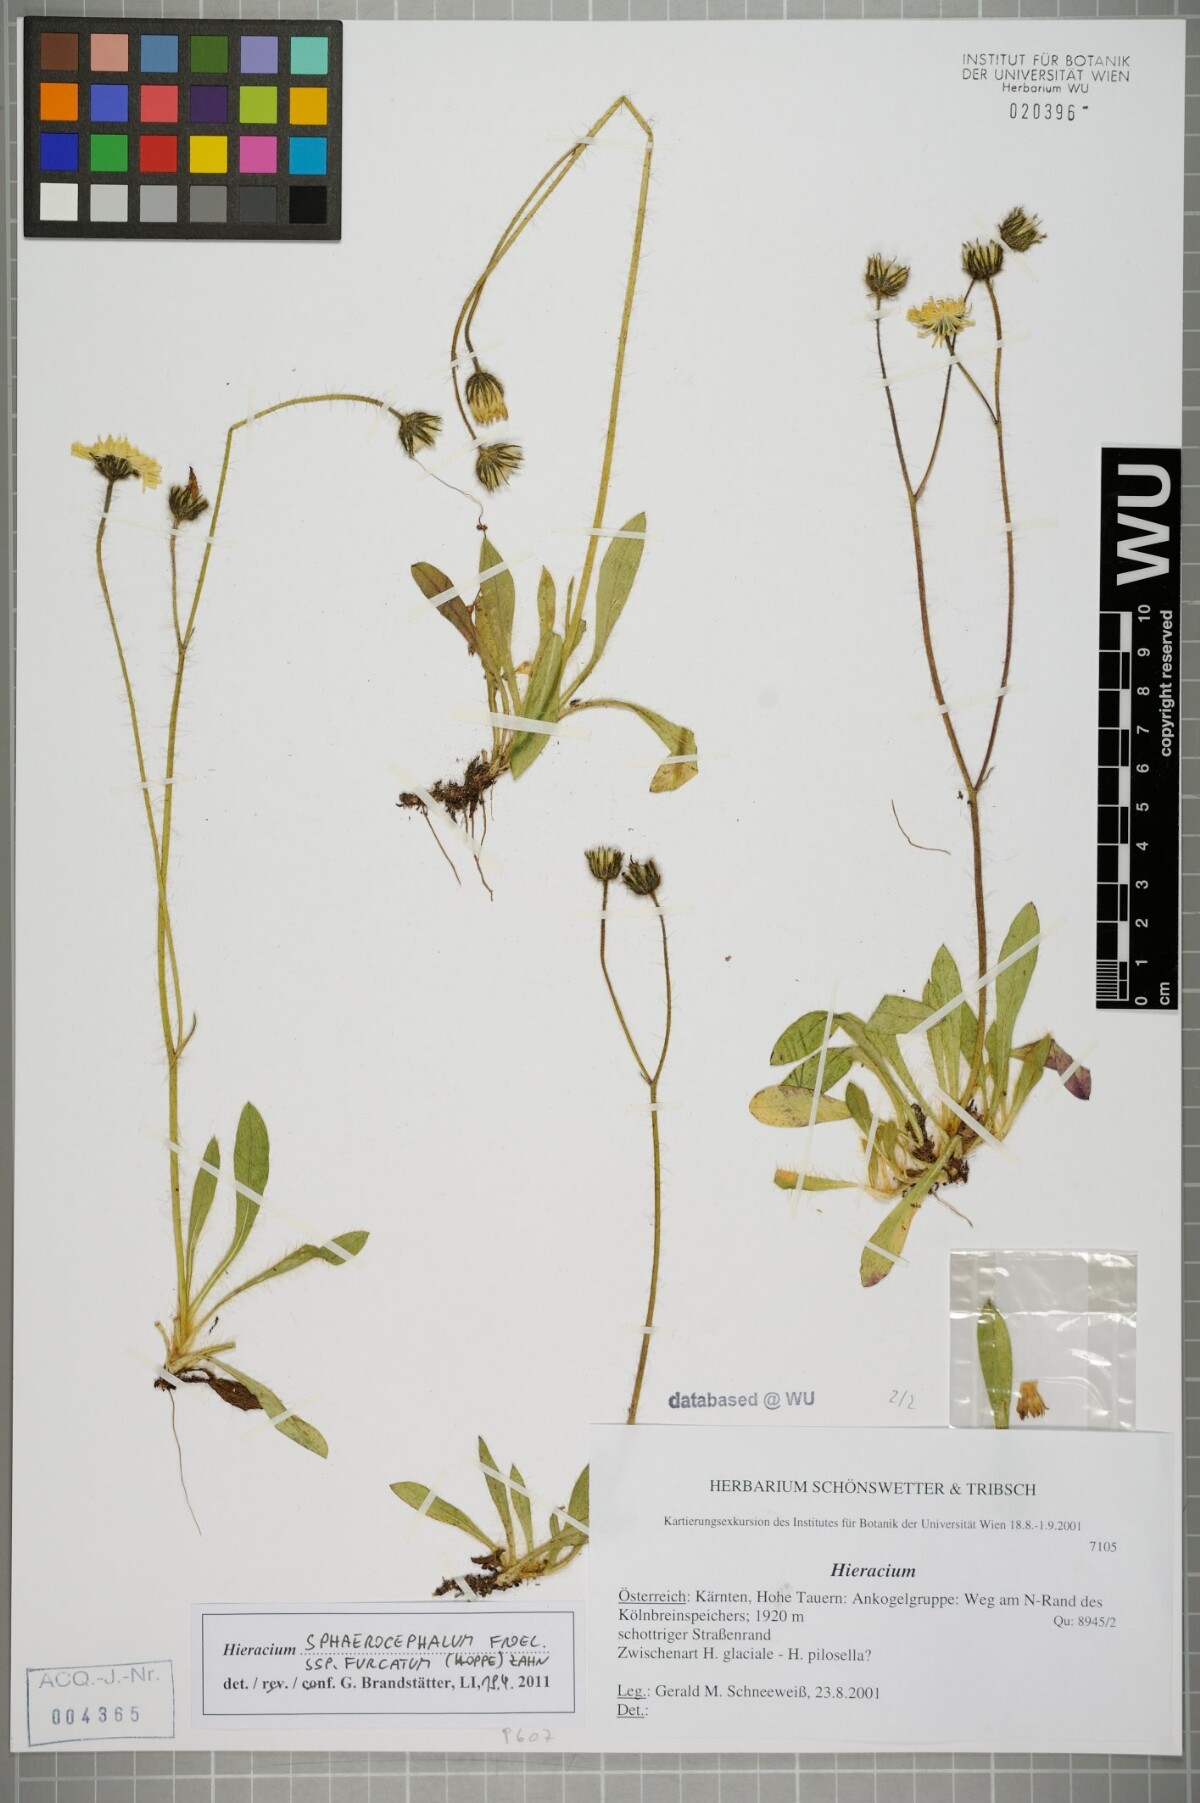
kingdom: Plantae
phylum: Tracheophyta
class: Magnoliopsida
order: Asterales
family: Asteraceae
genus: Pilosella
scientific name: Pilosella sphaerocephala
